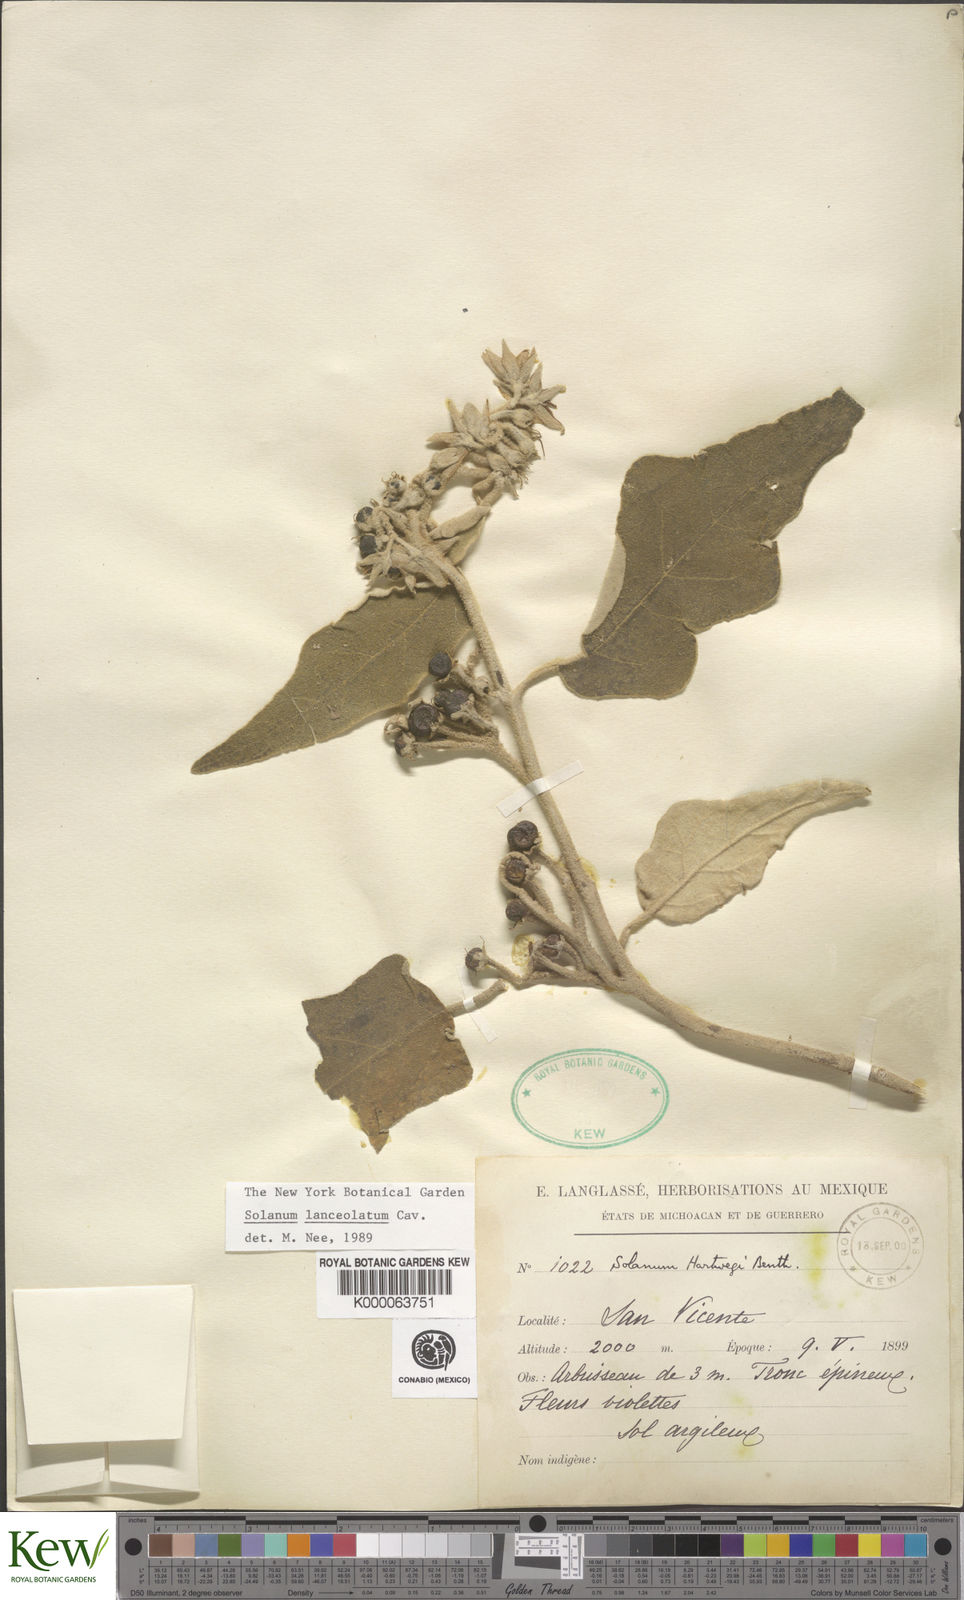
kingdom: Plantae
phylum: Tracheophyta
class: Magnoliopsida
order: Solanales
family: Solanaceae
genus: Solanum
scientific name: Solanum lanceolatum
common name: Orangeberry nightshade
